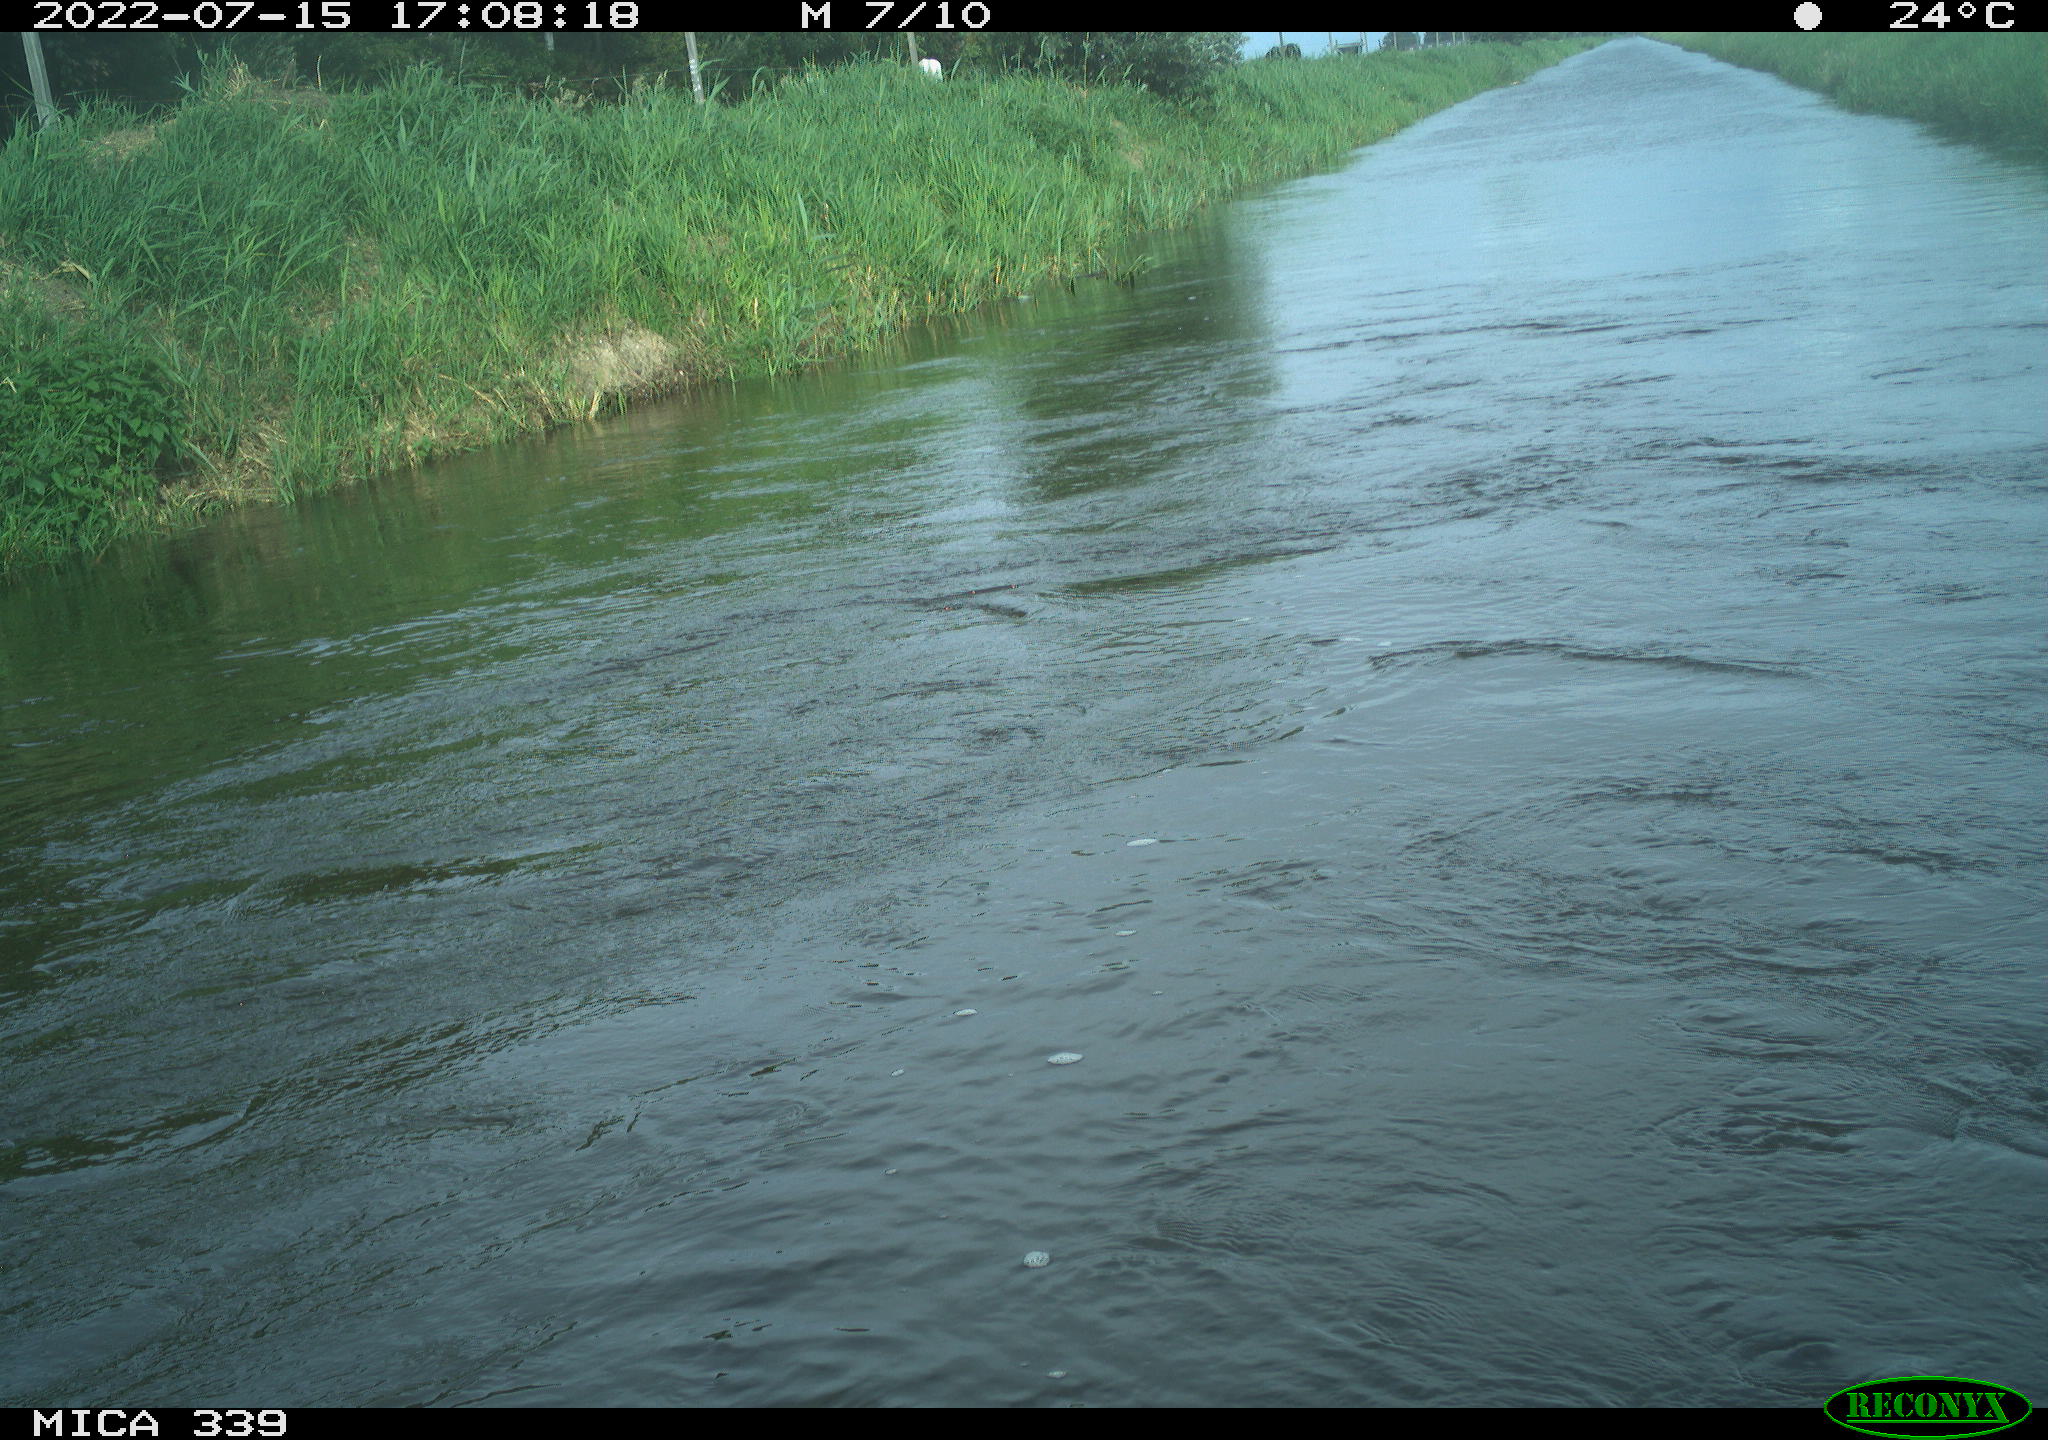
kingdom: Animalia
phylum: Chordata
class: Aves
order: Suliformes
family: Phalacrocoracidae
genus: Phalacrocorax
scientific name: Phalacrocorax carbo
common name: Great cormorant
